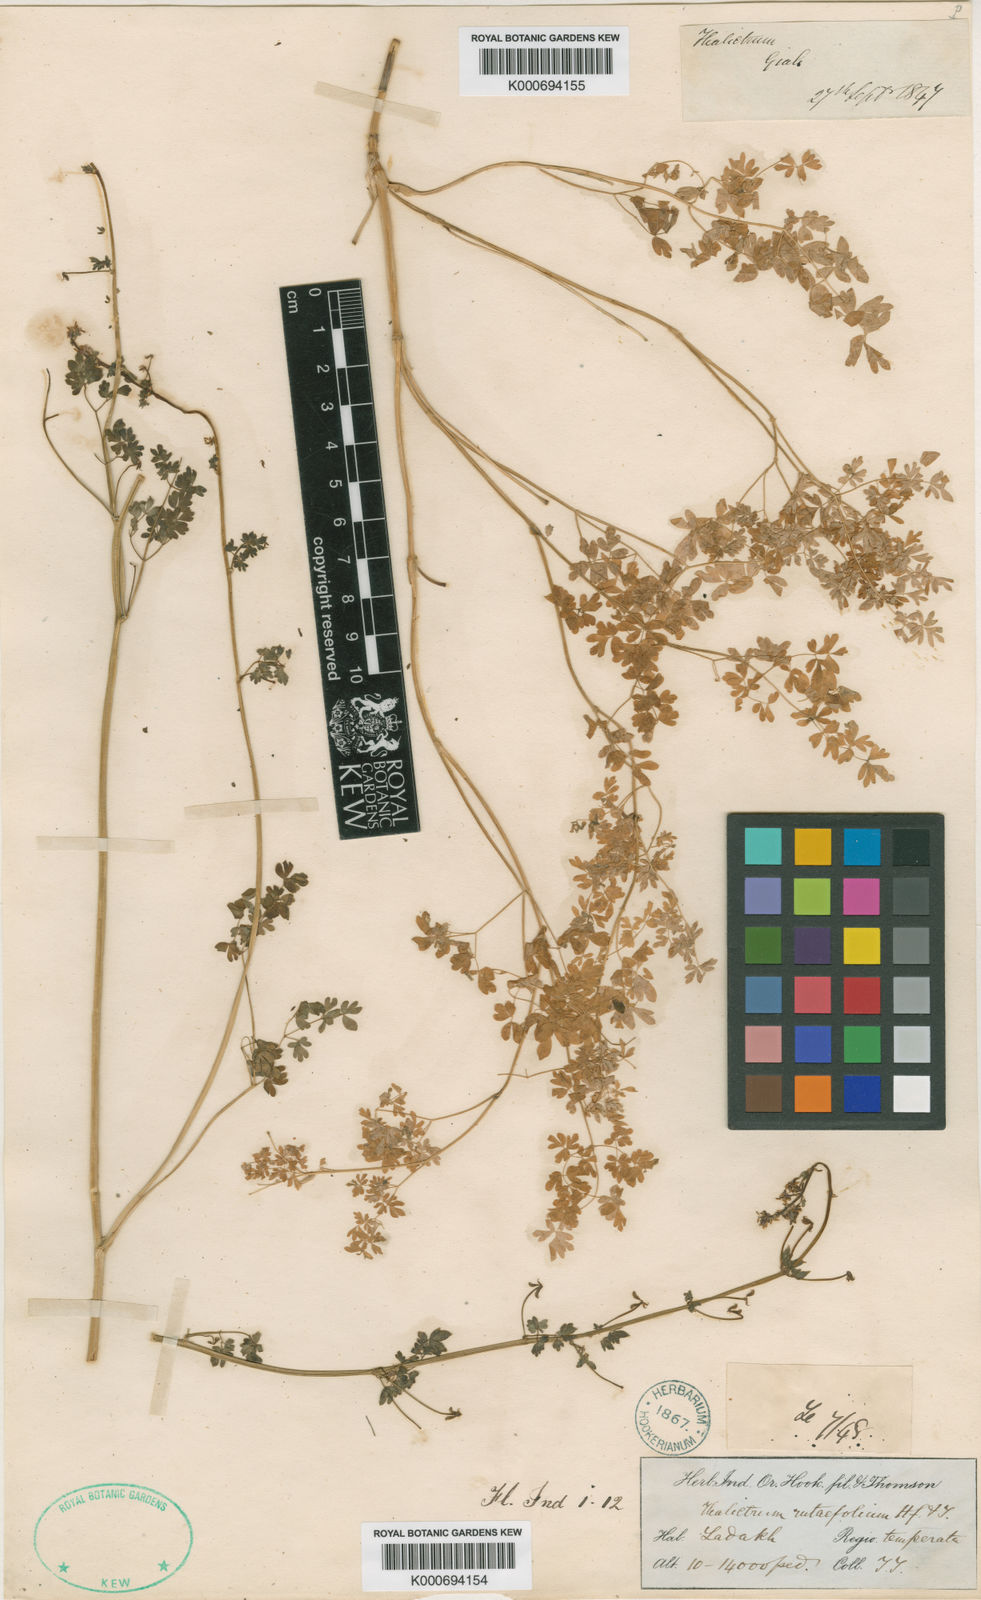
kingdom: Plantae
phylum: Tracheophyta
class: Magnoliopsida
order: Ranunculales
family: Ranunculaceae
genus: Thalictrum
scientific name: Thalictrum
